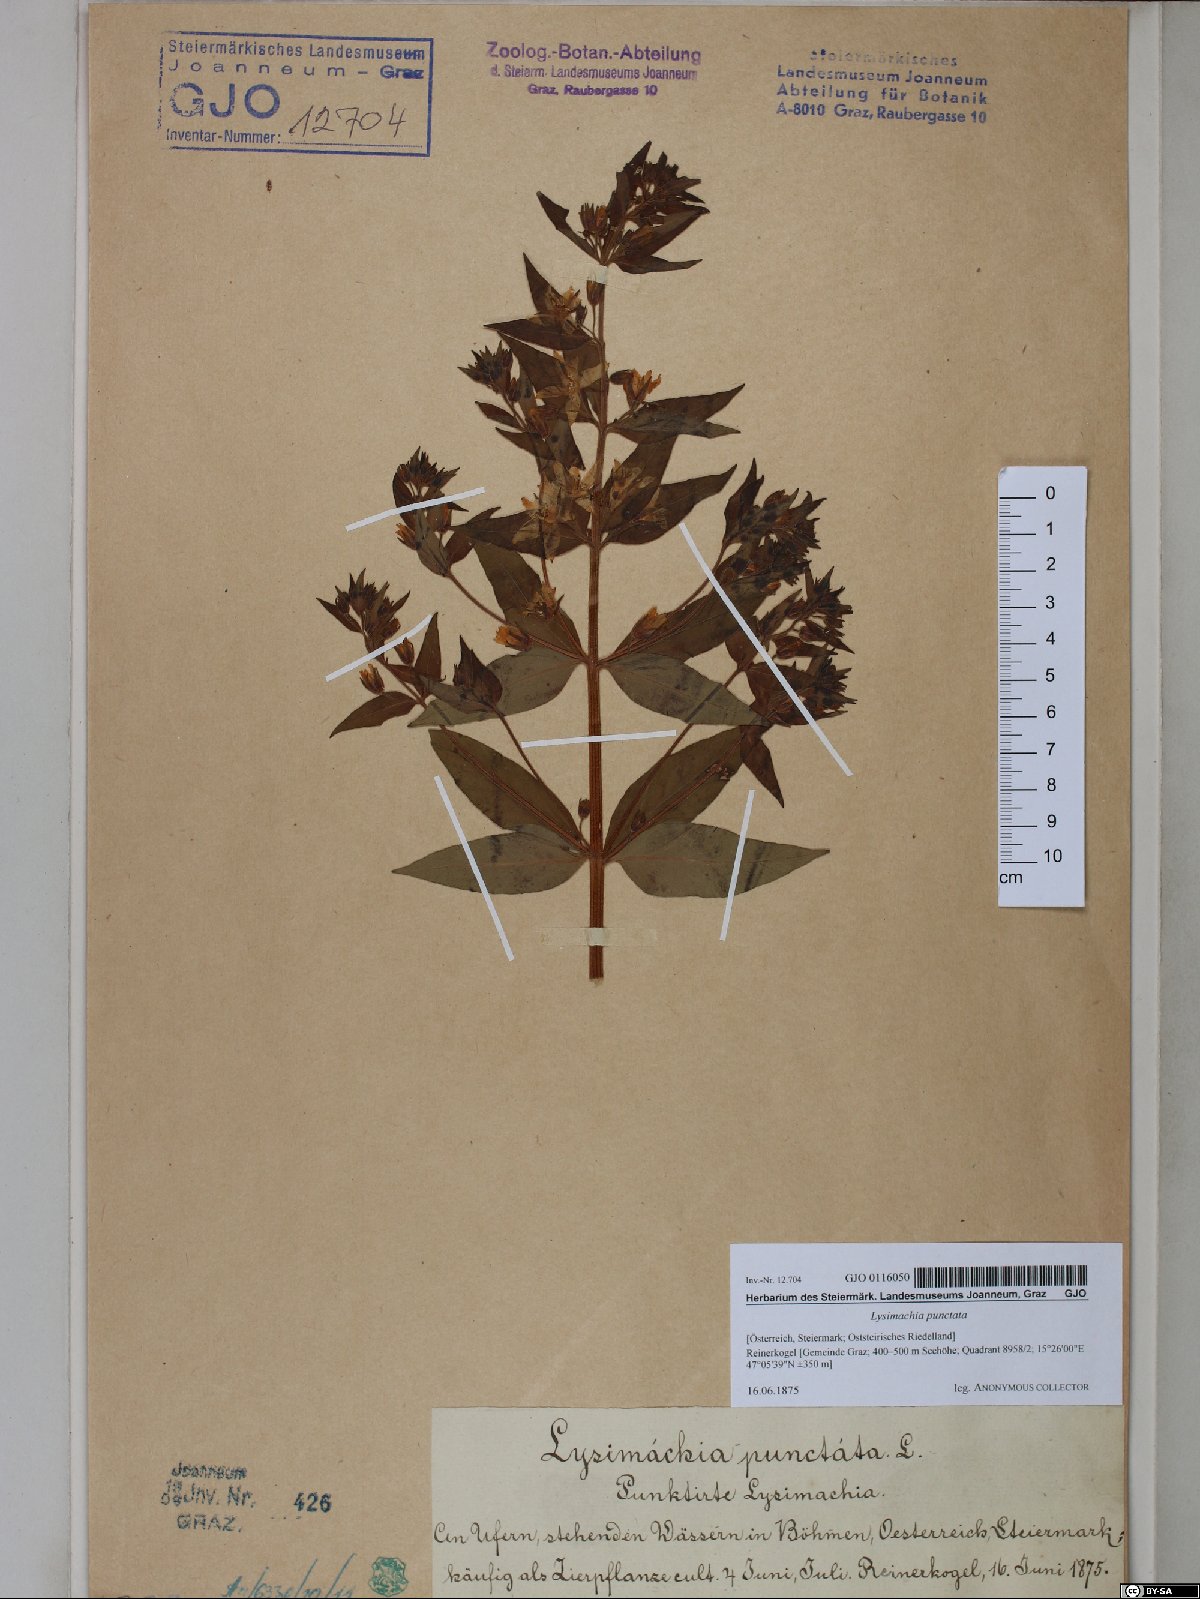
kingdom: Plantae
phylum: Tracheophyta
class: Magnoliopsida
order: Ericales
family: Primulaceae
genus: Lysimachia
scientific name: Lysimachia punctata
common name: Dotted loosestrife
